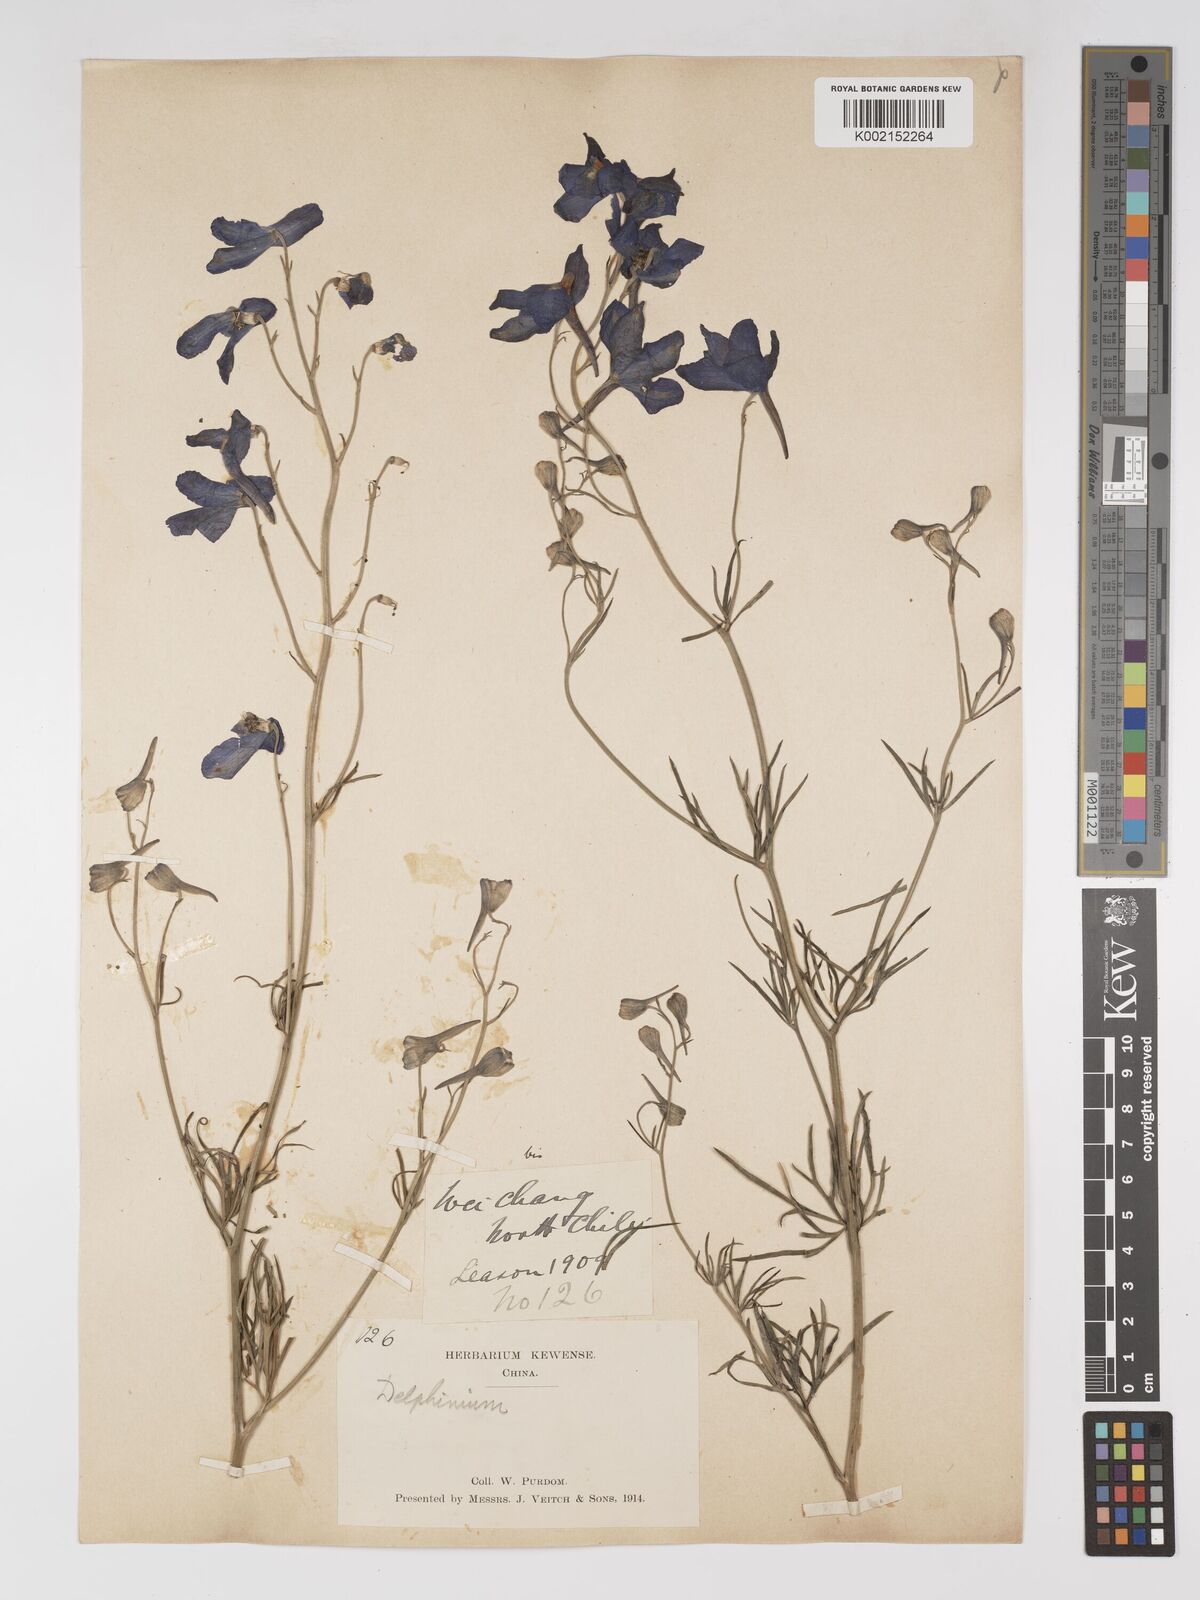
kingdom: Plantae
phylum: Tracheophyta
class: Magnoliopsida
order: Ranunculales
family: Ranunculaceae
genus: Delphinium
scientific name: Delphinium grandiflorum
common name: Siberian larkspur
